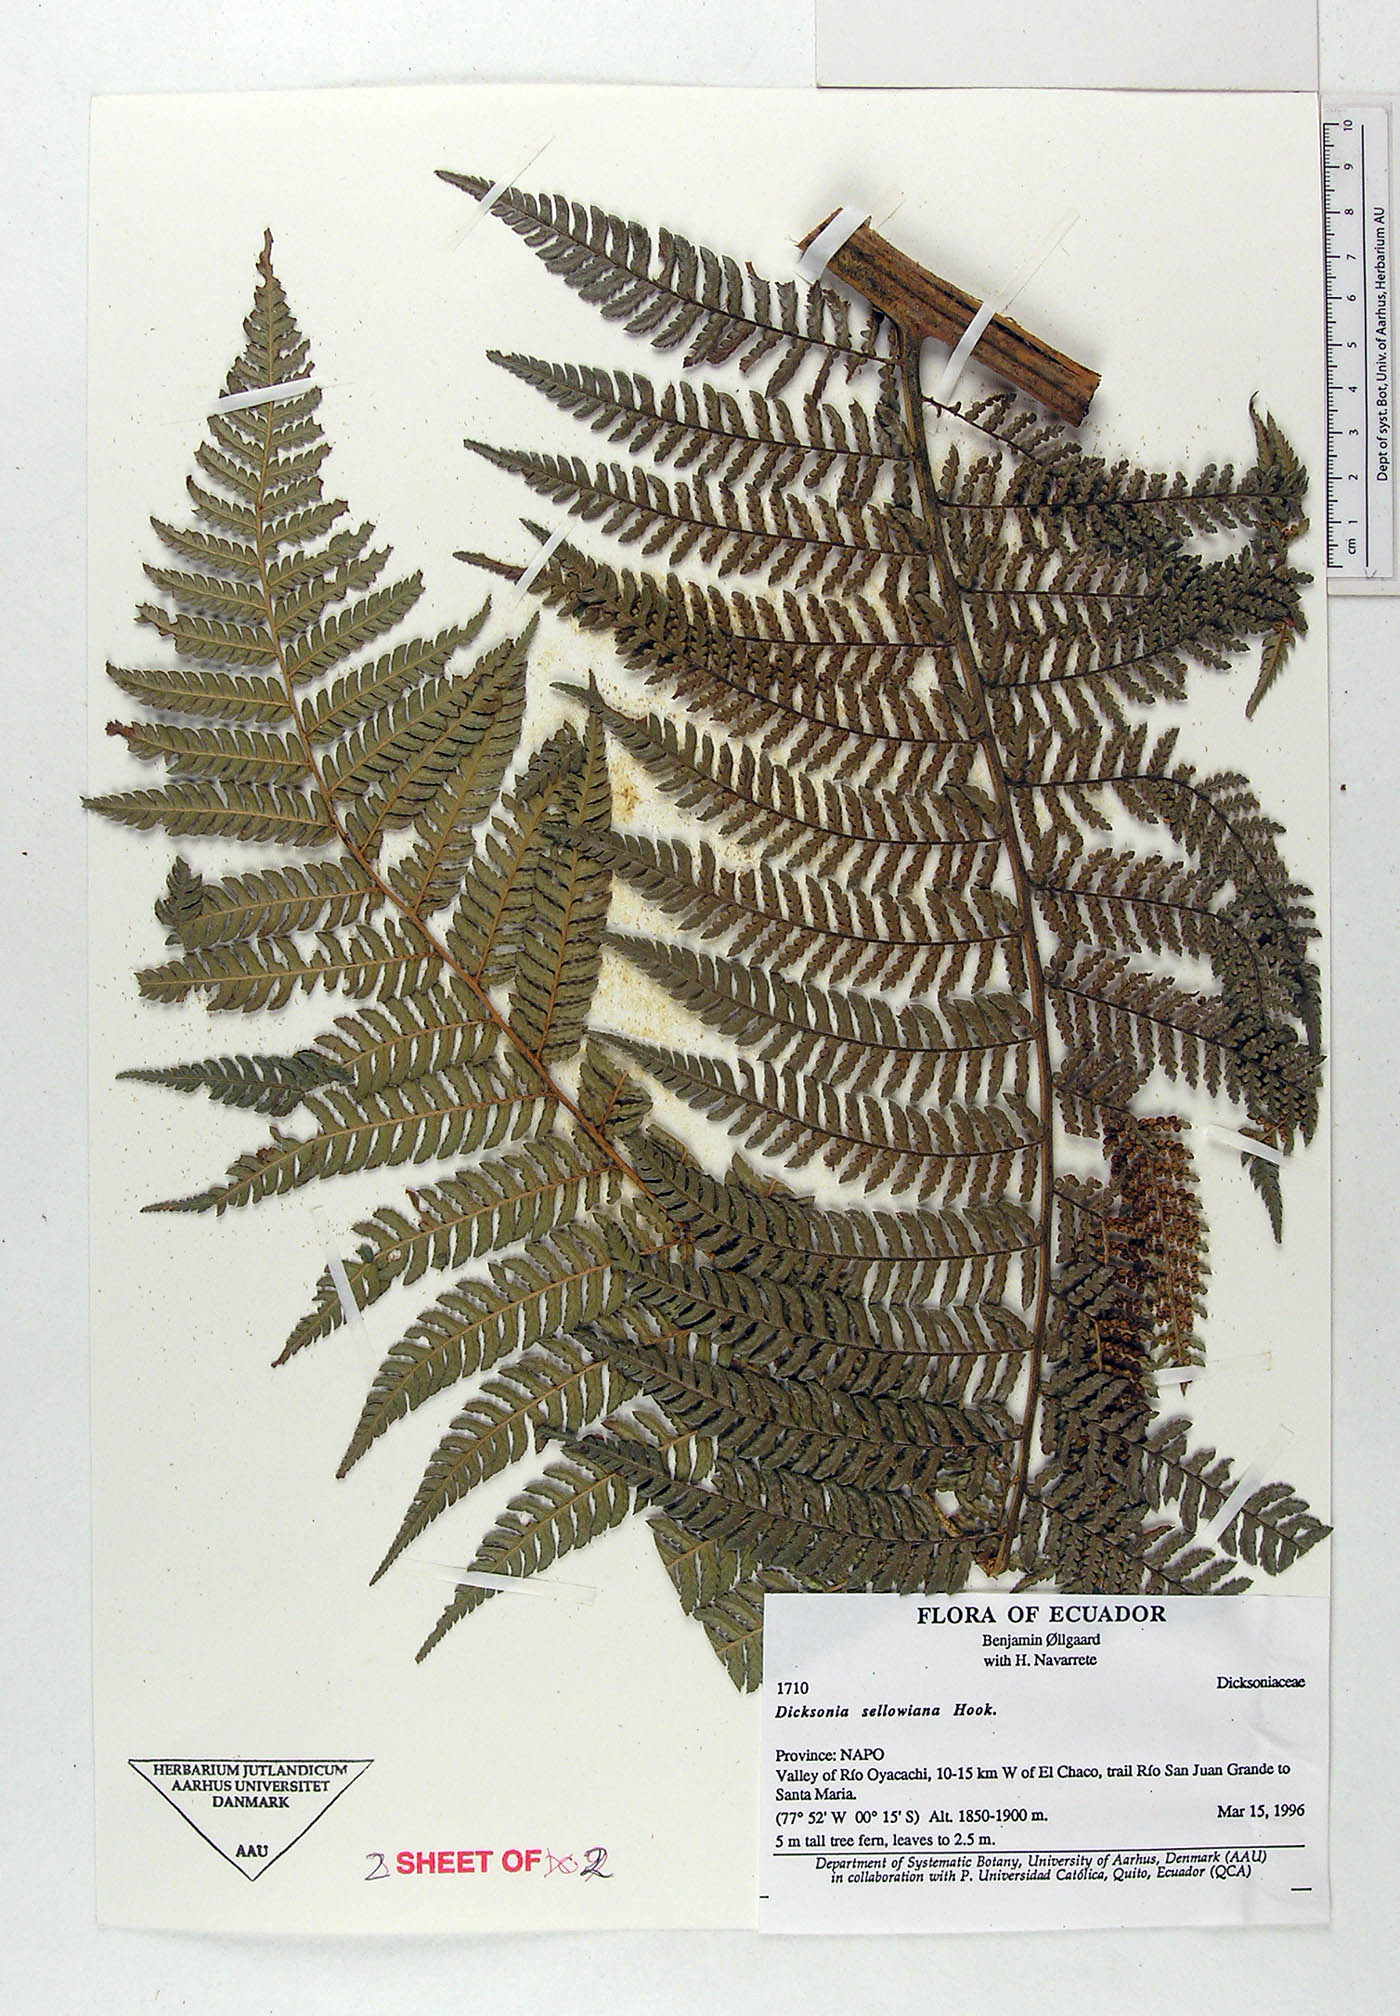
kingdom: Plantae
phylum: Tracheophyta
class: Polypodiopsida
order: Cyatheales
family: Dicksoniaceae
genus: Dicksonia
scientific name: Dicksonia sellowiana
